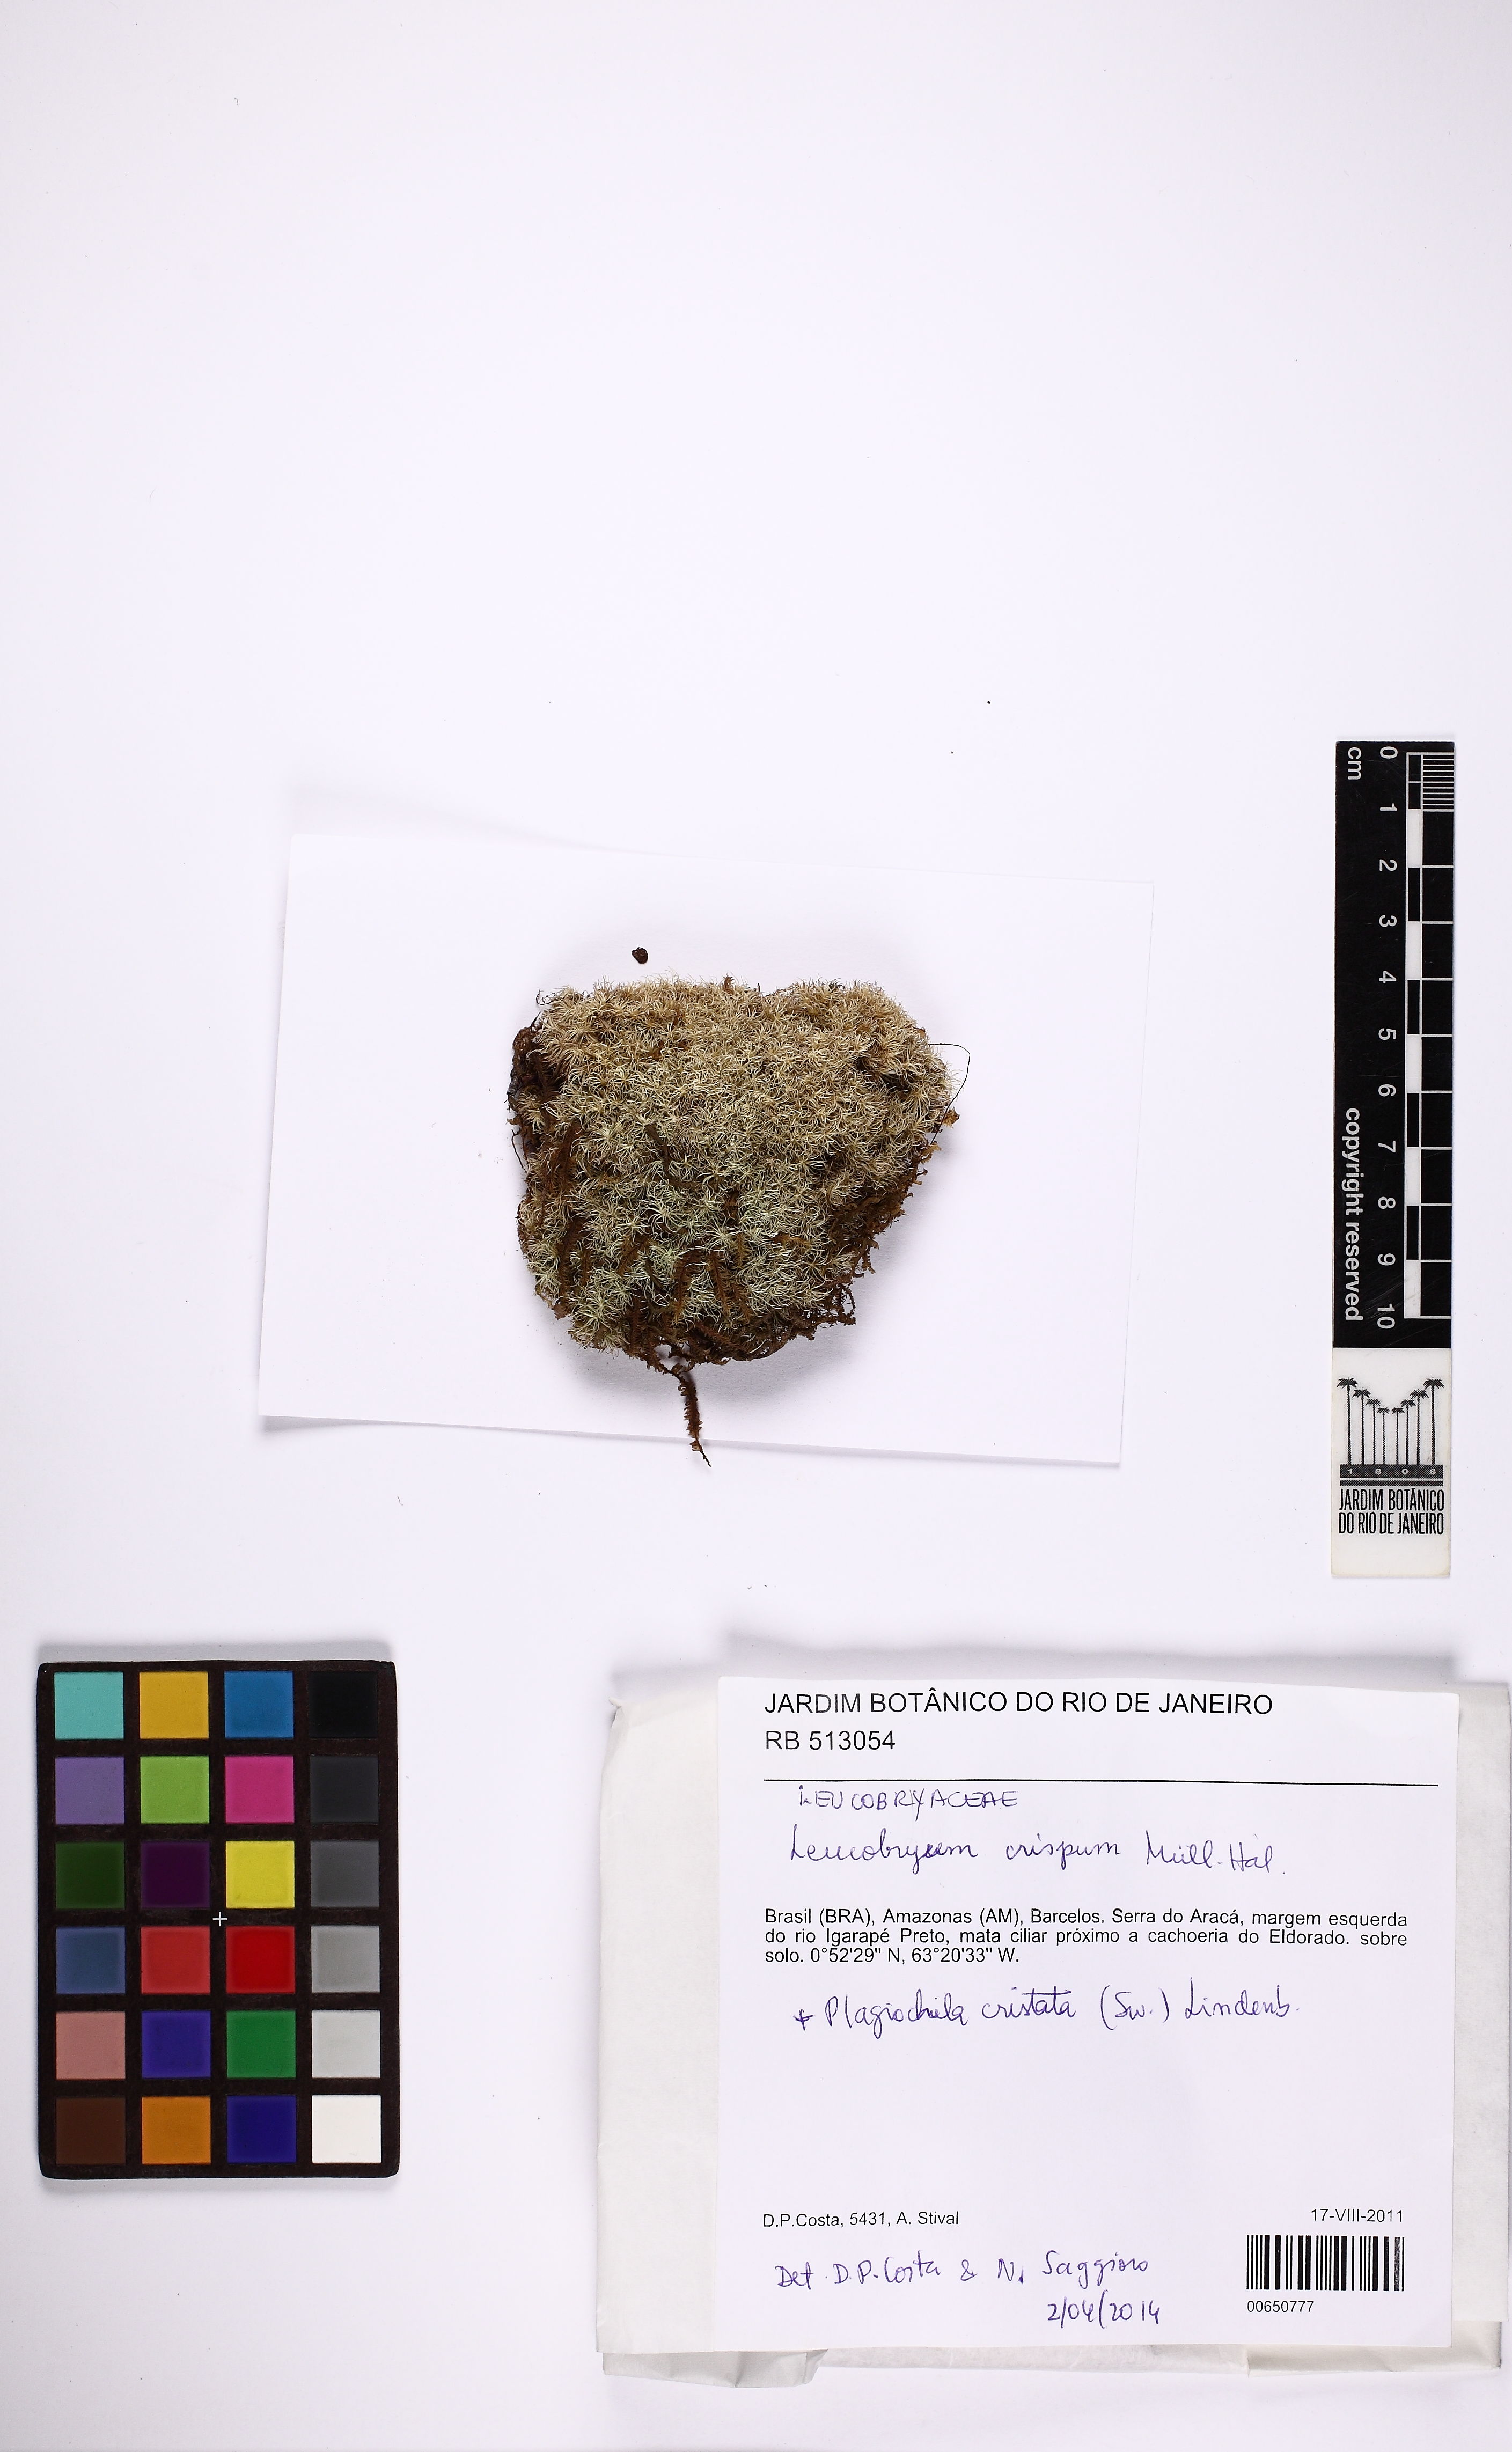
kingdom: Plantae
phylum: Bryophyta
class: Bryopsida
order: Dicranales
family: Leucobryaceae
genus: Leucobryum
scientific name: Leucobryum crispum
